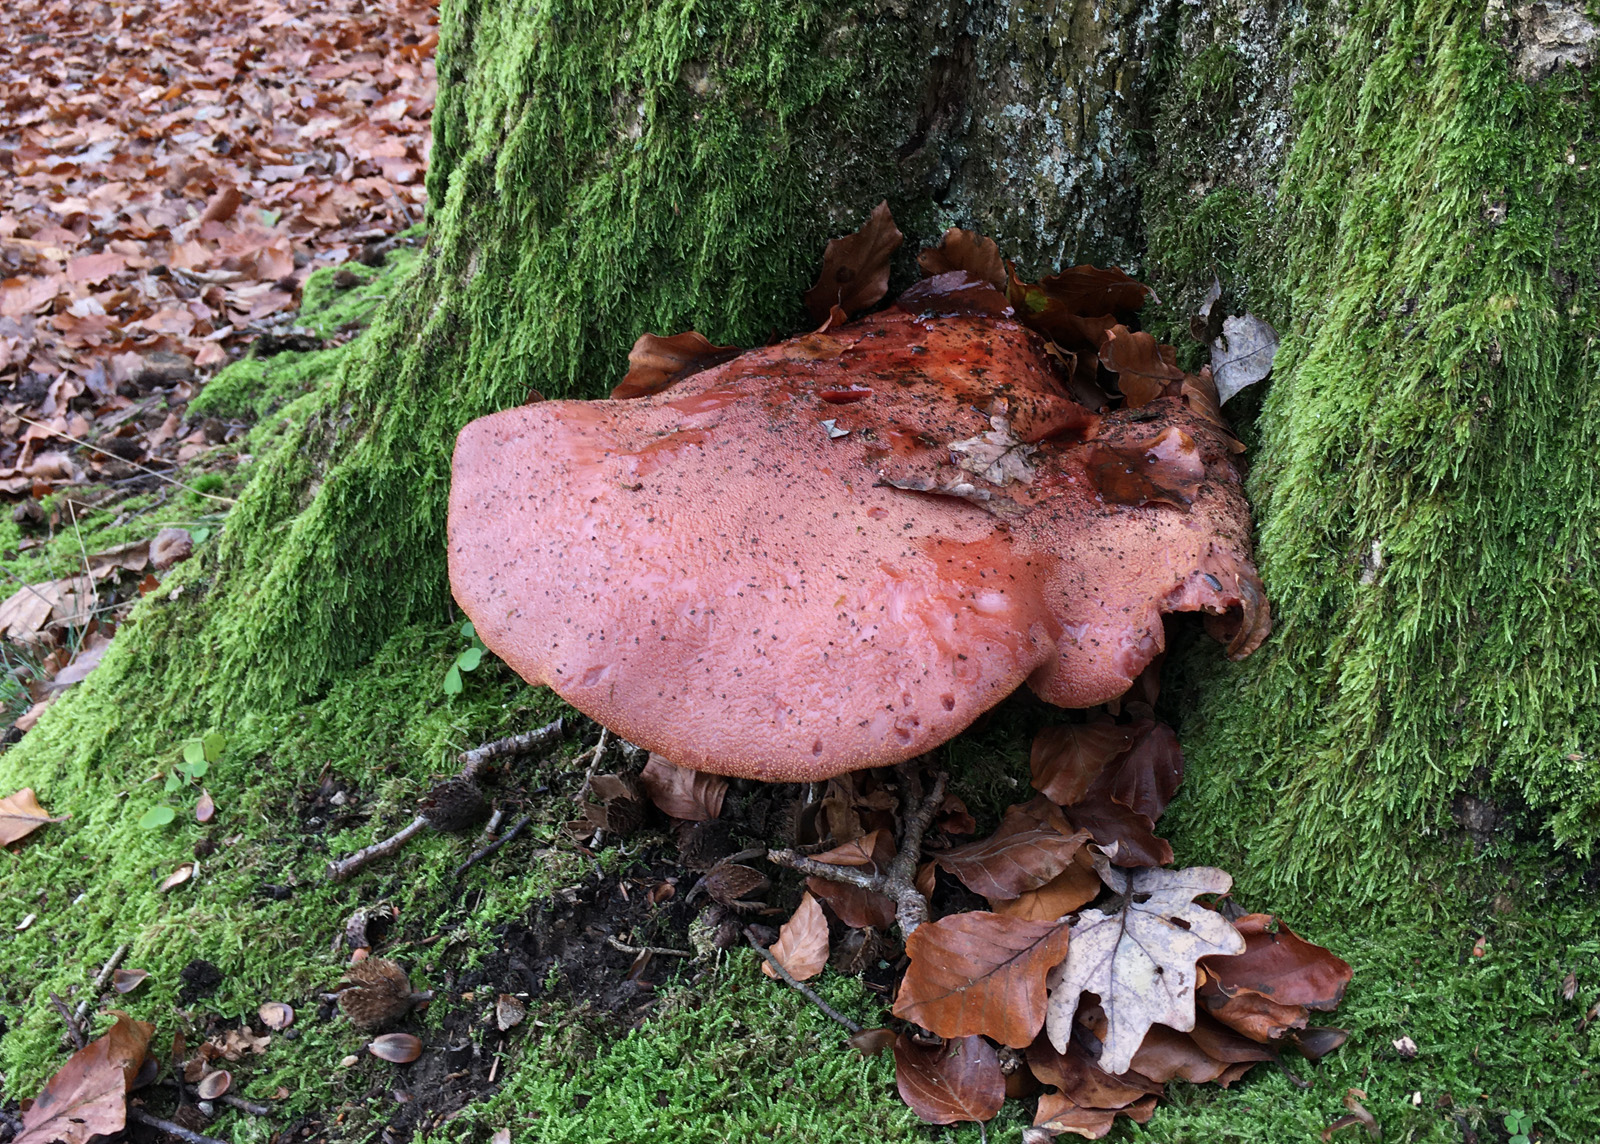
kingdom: Fungi
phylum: Basidiomycota
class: Agaricomycetes
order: Agaricales
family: Fistulinaceae
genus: Fistulina
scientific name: Fistulina hepatica
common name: oksetunge
